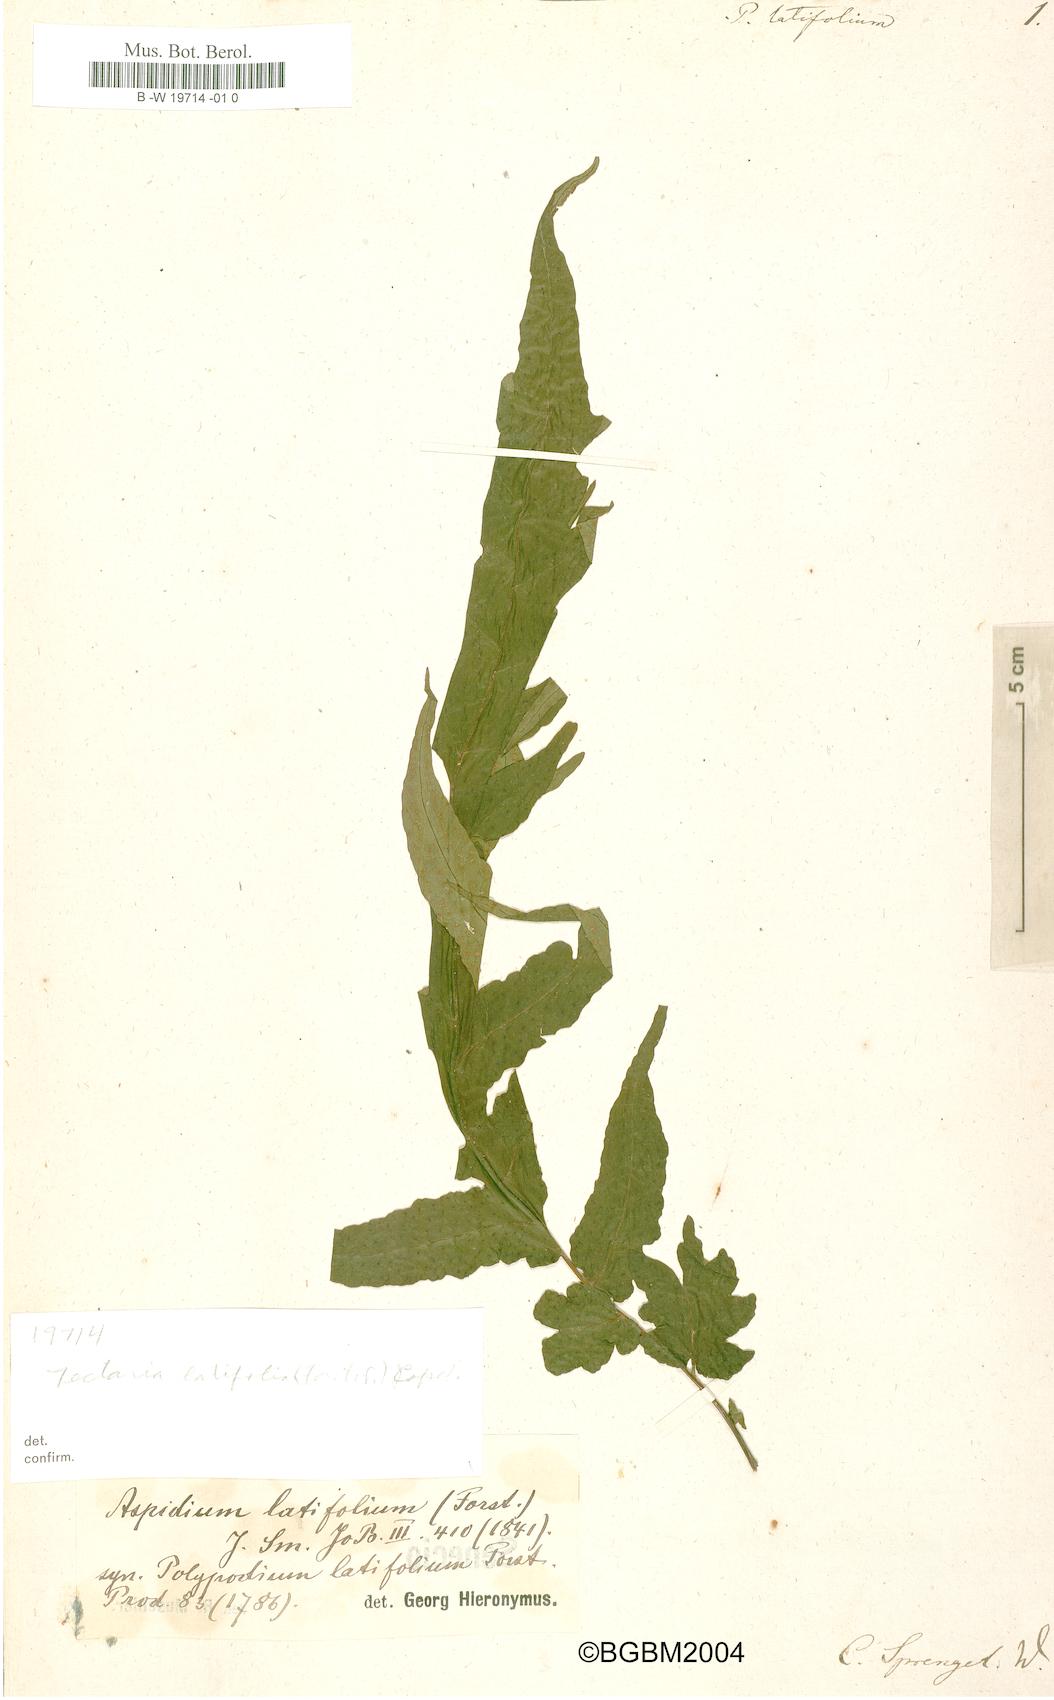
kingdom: Plantae
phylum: Tracheophyta
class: Polypodiopsida
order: Polypodiales
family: Tectariaceae
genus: Tectaria
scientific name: Tectaria latifolia
